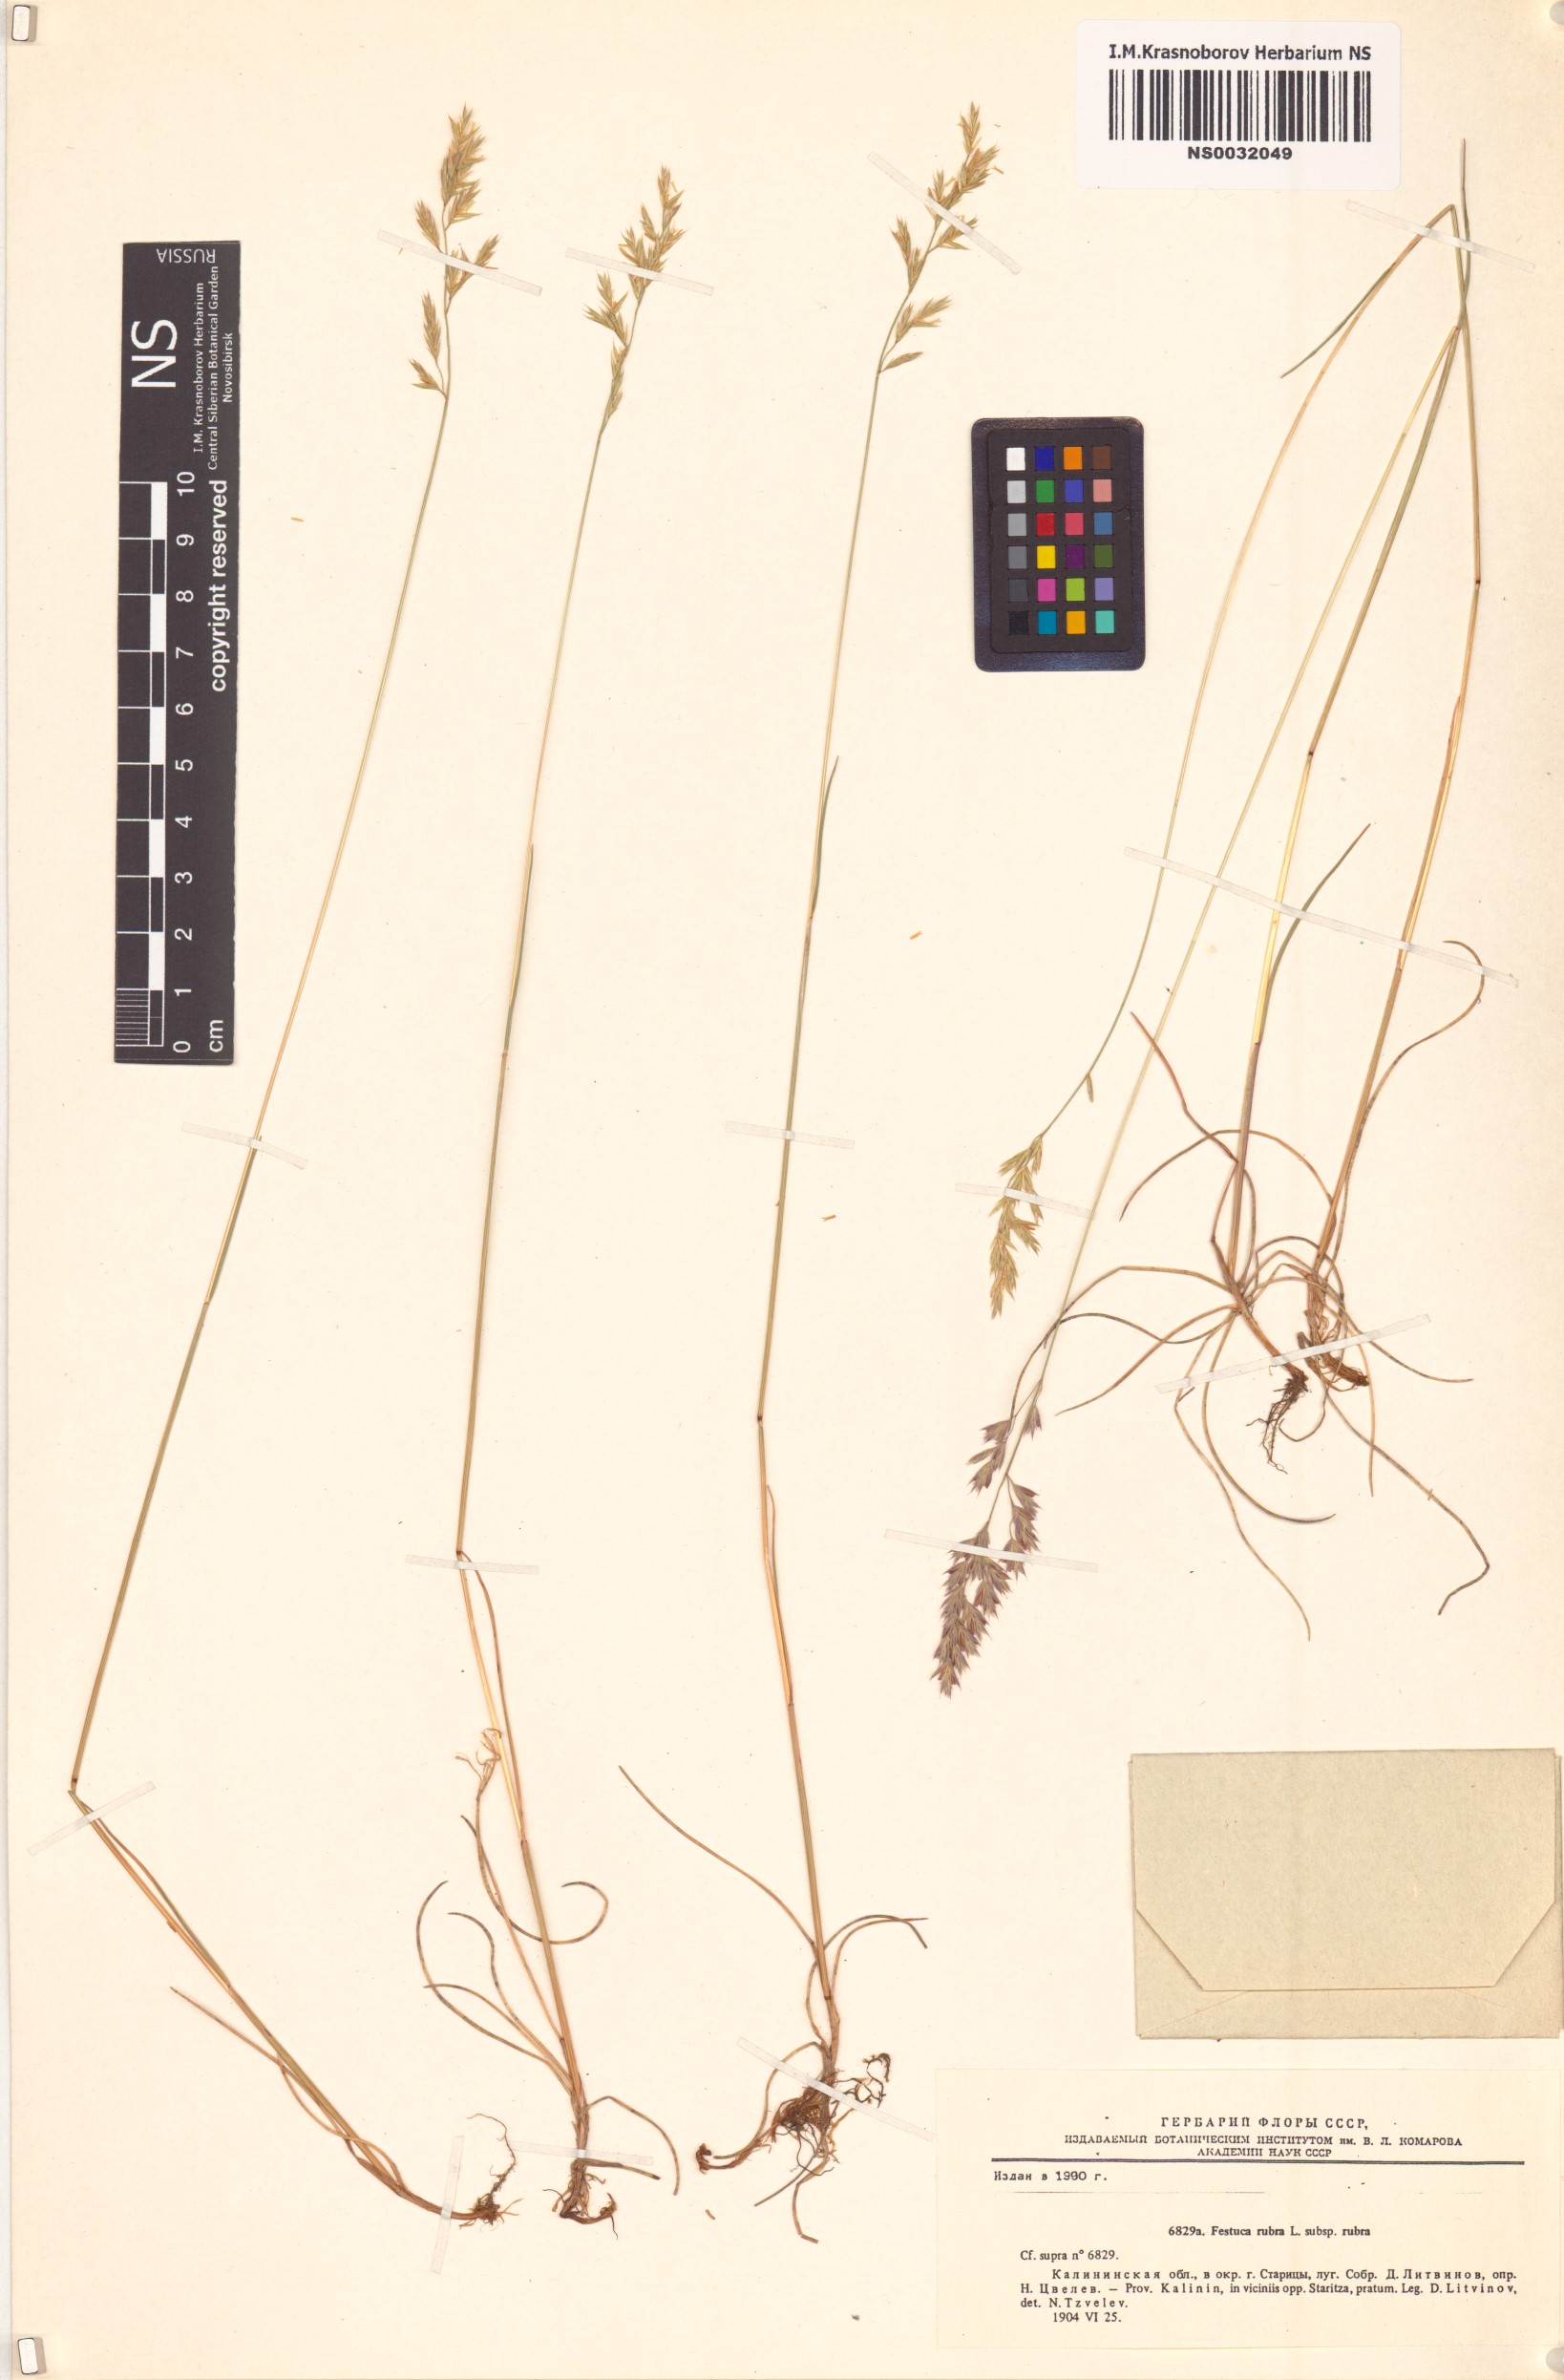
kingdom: Plantae
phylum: Tracheophyta
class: Liliopsida
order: Poales
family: Poaceae
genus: Festuca
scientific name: Festuca rubra
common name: Red fescue
